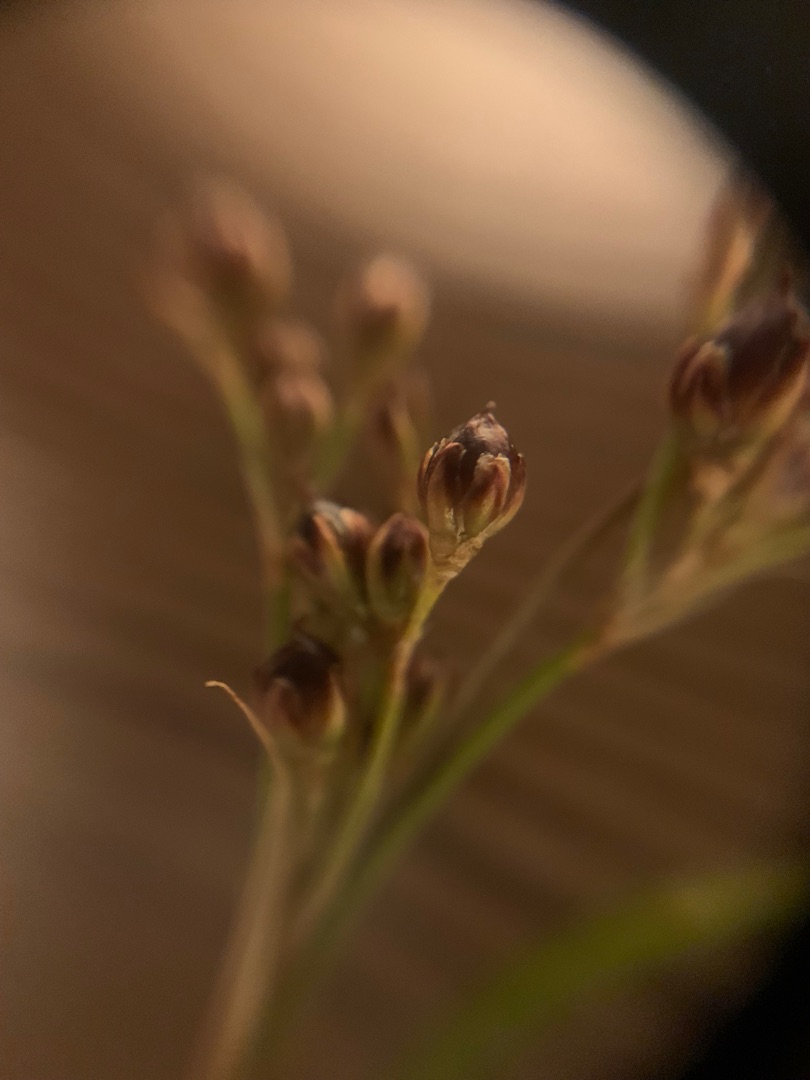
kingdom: Plantae
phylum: Tracheophyta
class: Liliopsida
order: Poales
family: Juncaceae
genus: Juncus
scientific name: Juncus compressus
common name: Fladstrået siv
